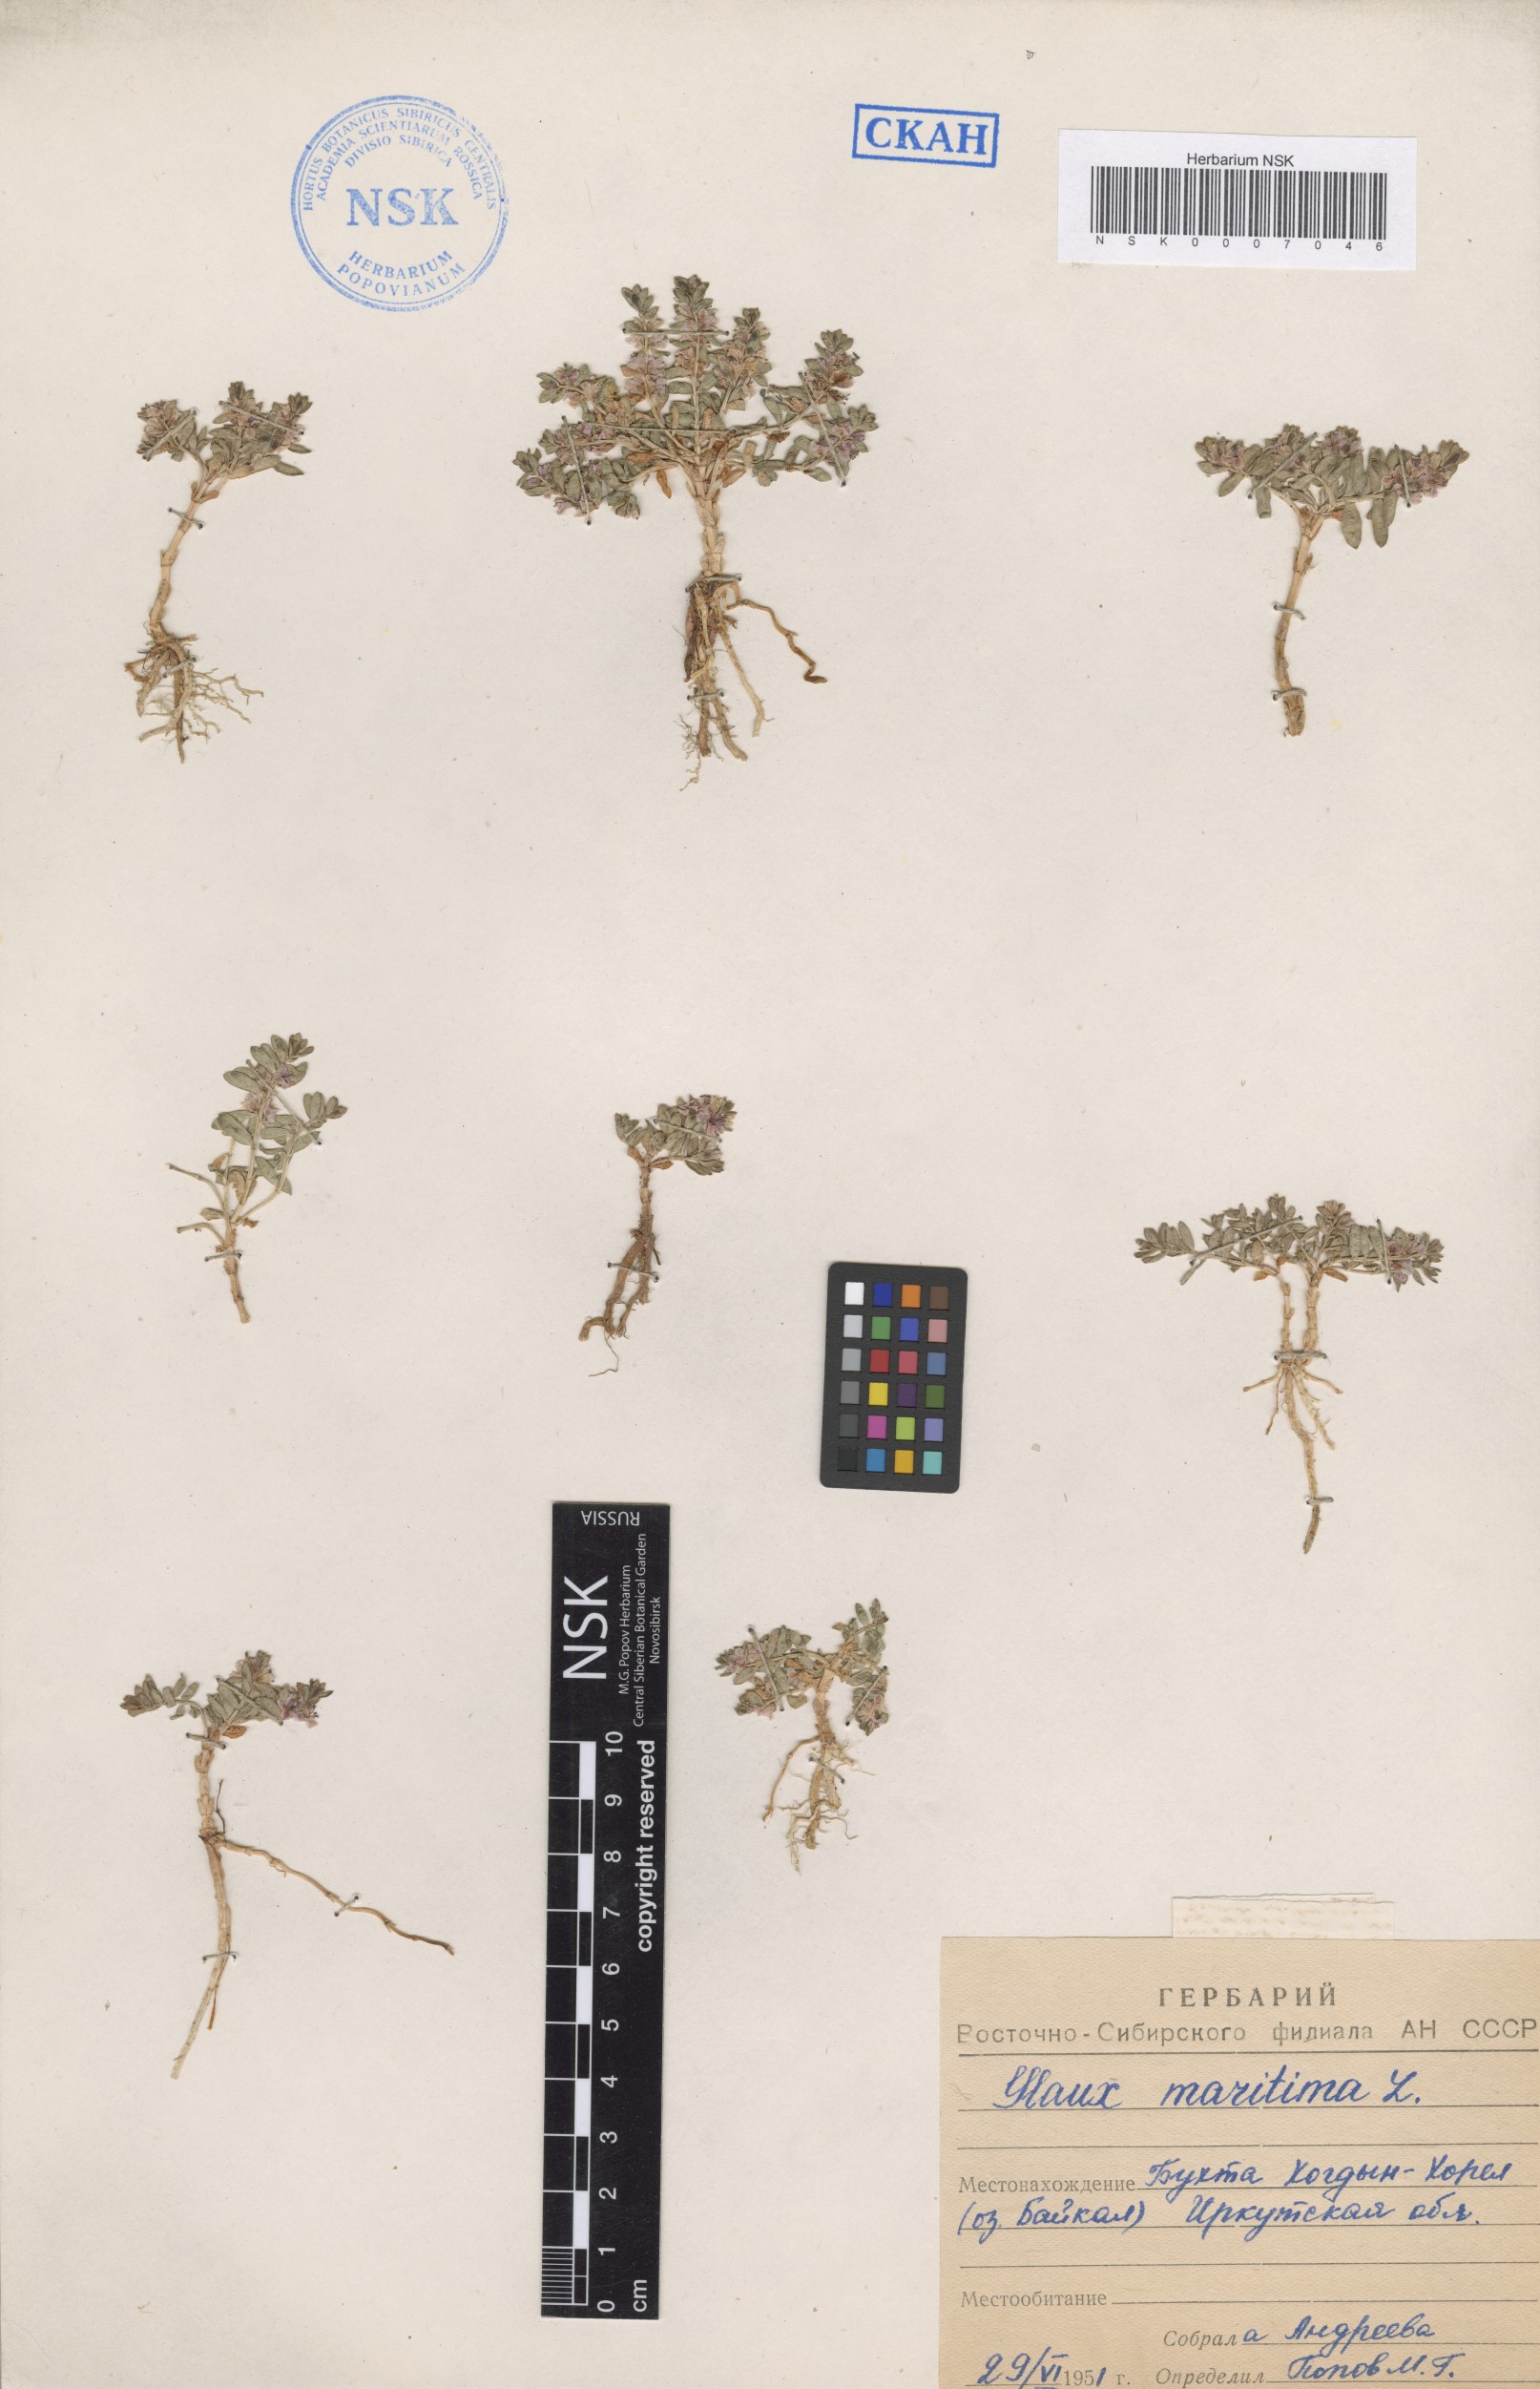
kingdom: Plantae
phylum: Tracheophyta
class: Magnoliopsida
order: Ericales
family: Primulaceae
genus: Lysimachia
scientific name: Lysimachia maritima
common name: Sea milkwort
